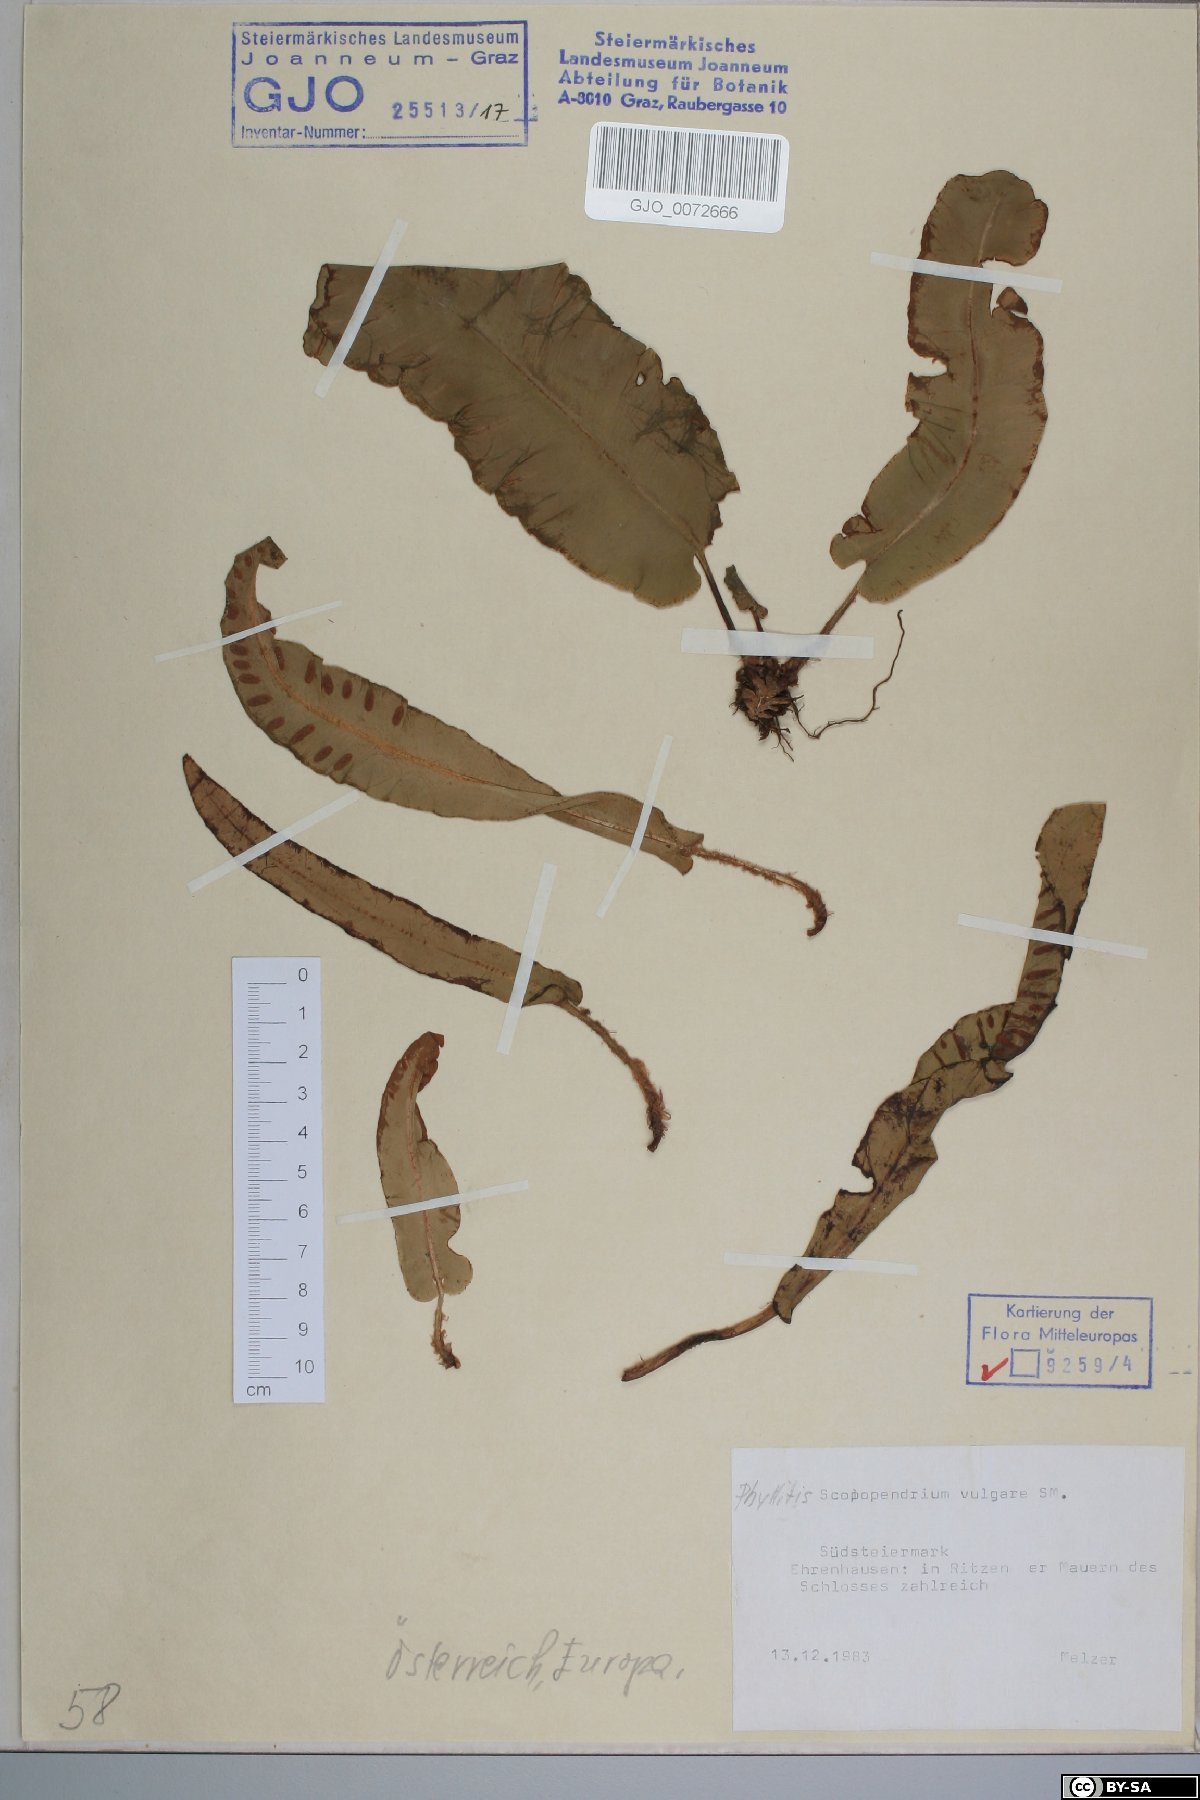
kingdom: Plantae
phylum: Tracheophyta
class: Polypodiopsida
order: Polypodiales
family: Aspleniaceae
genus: Asplenium
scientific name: Asplenium scolopendrium
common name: Hart's-tongue fern
